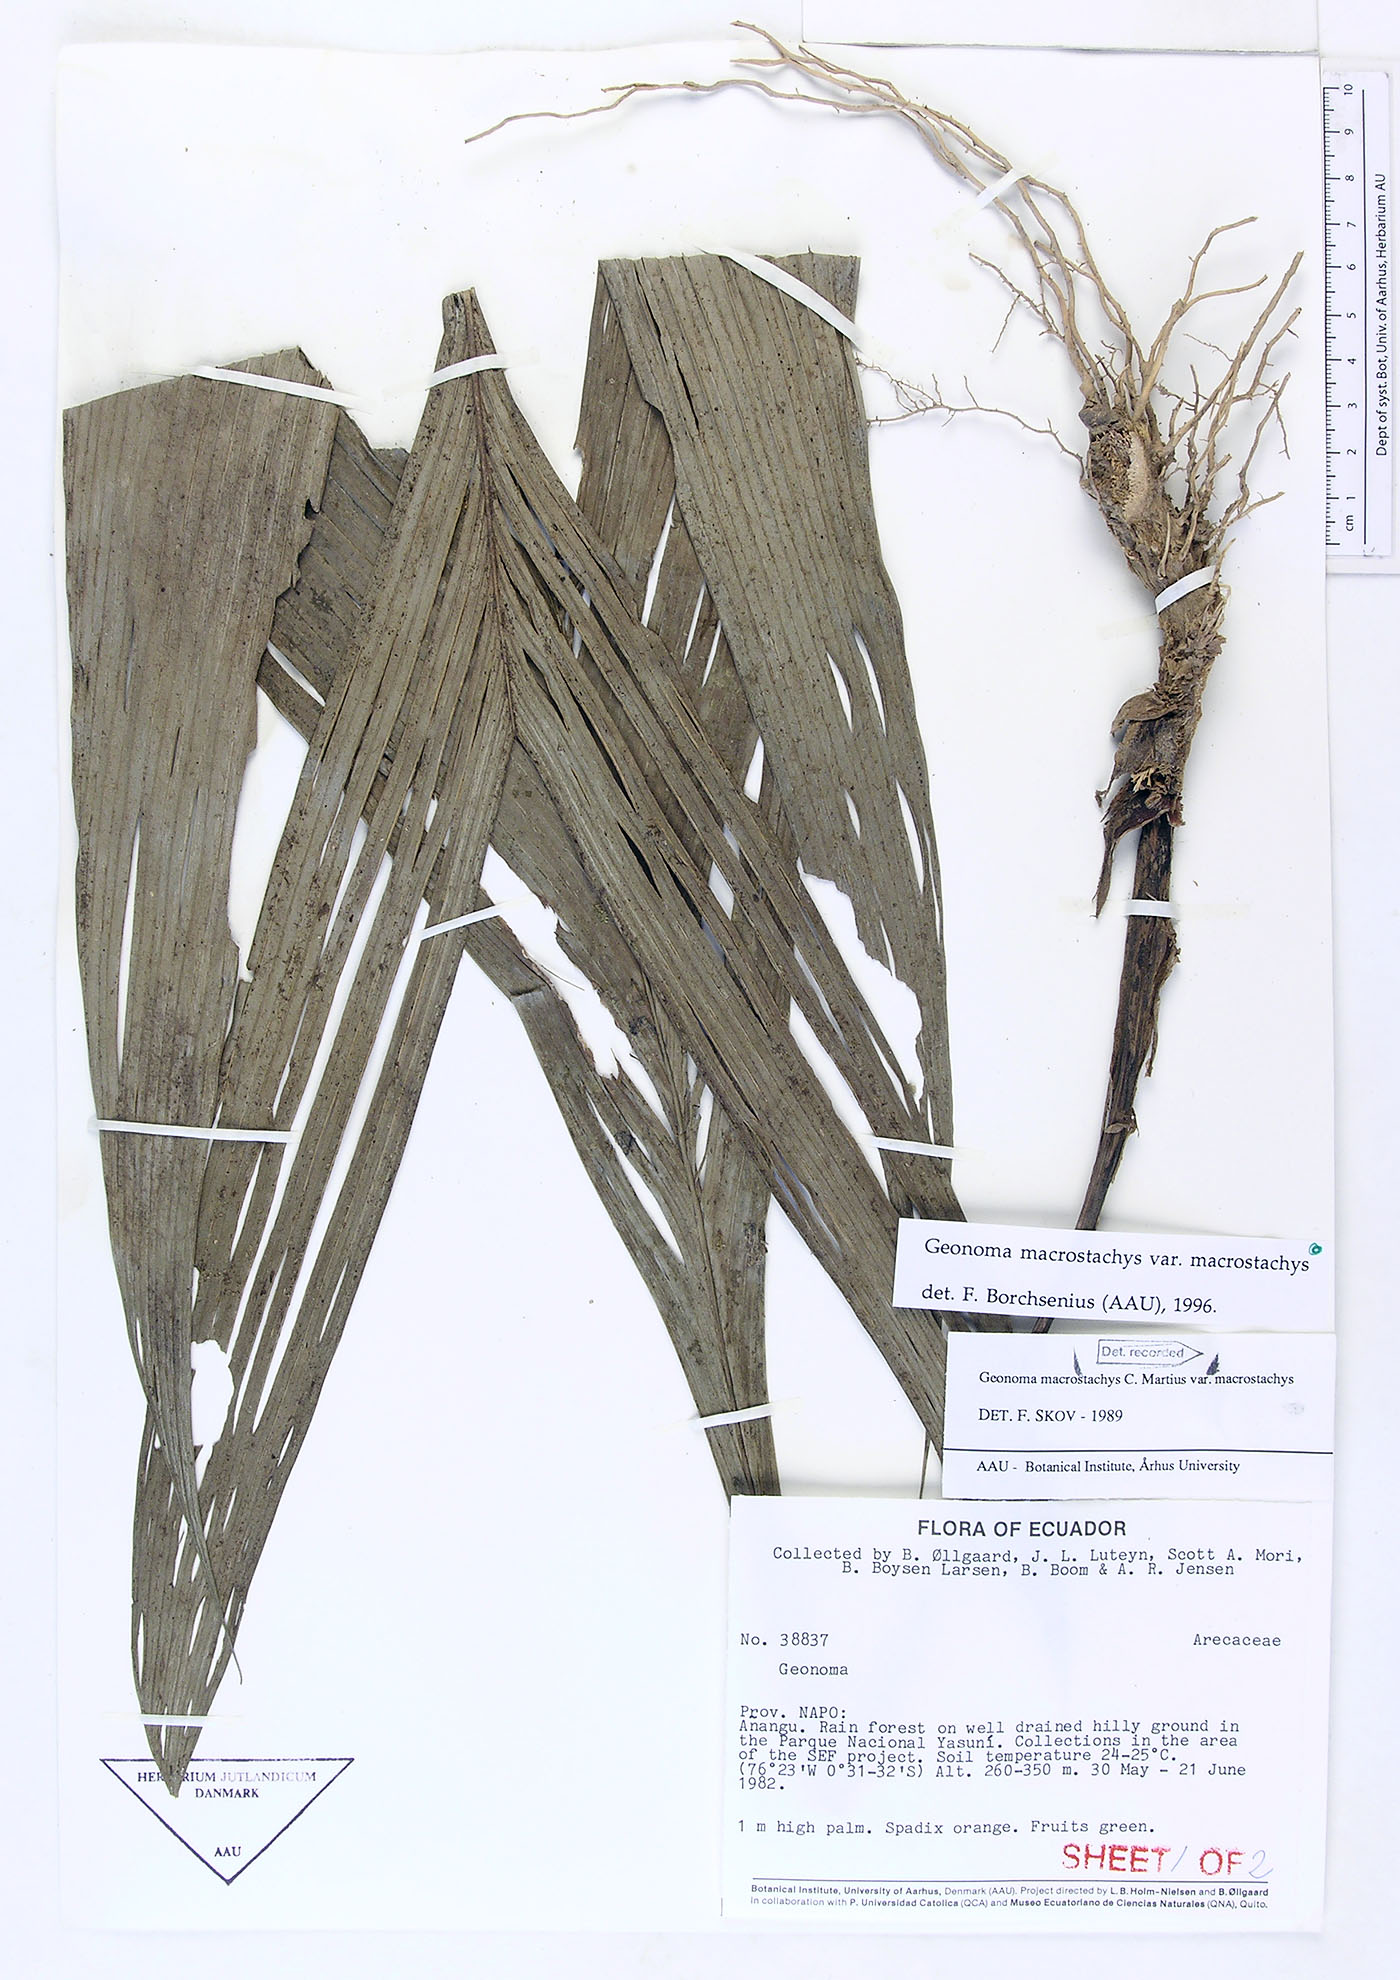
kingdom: Plantae
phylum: Tracheophyta
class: Liliopsida
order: Arecales
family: Arecaceae
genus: Geonoma
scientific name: Geonoma macrostachys
